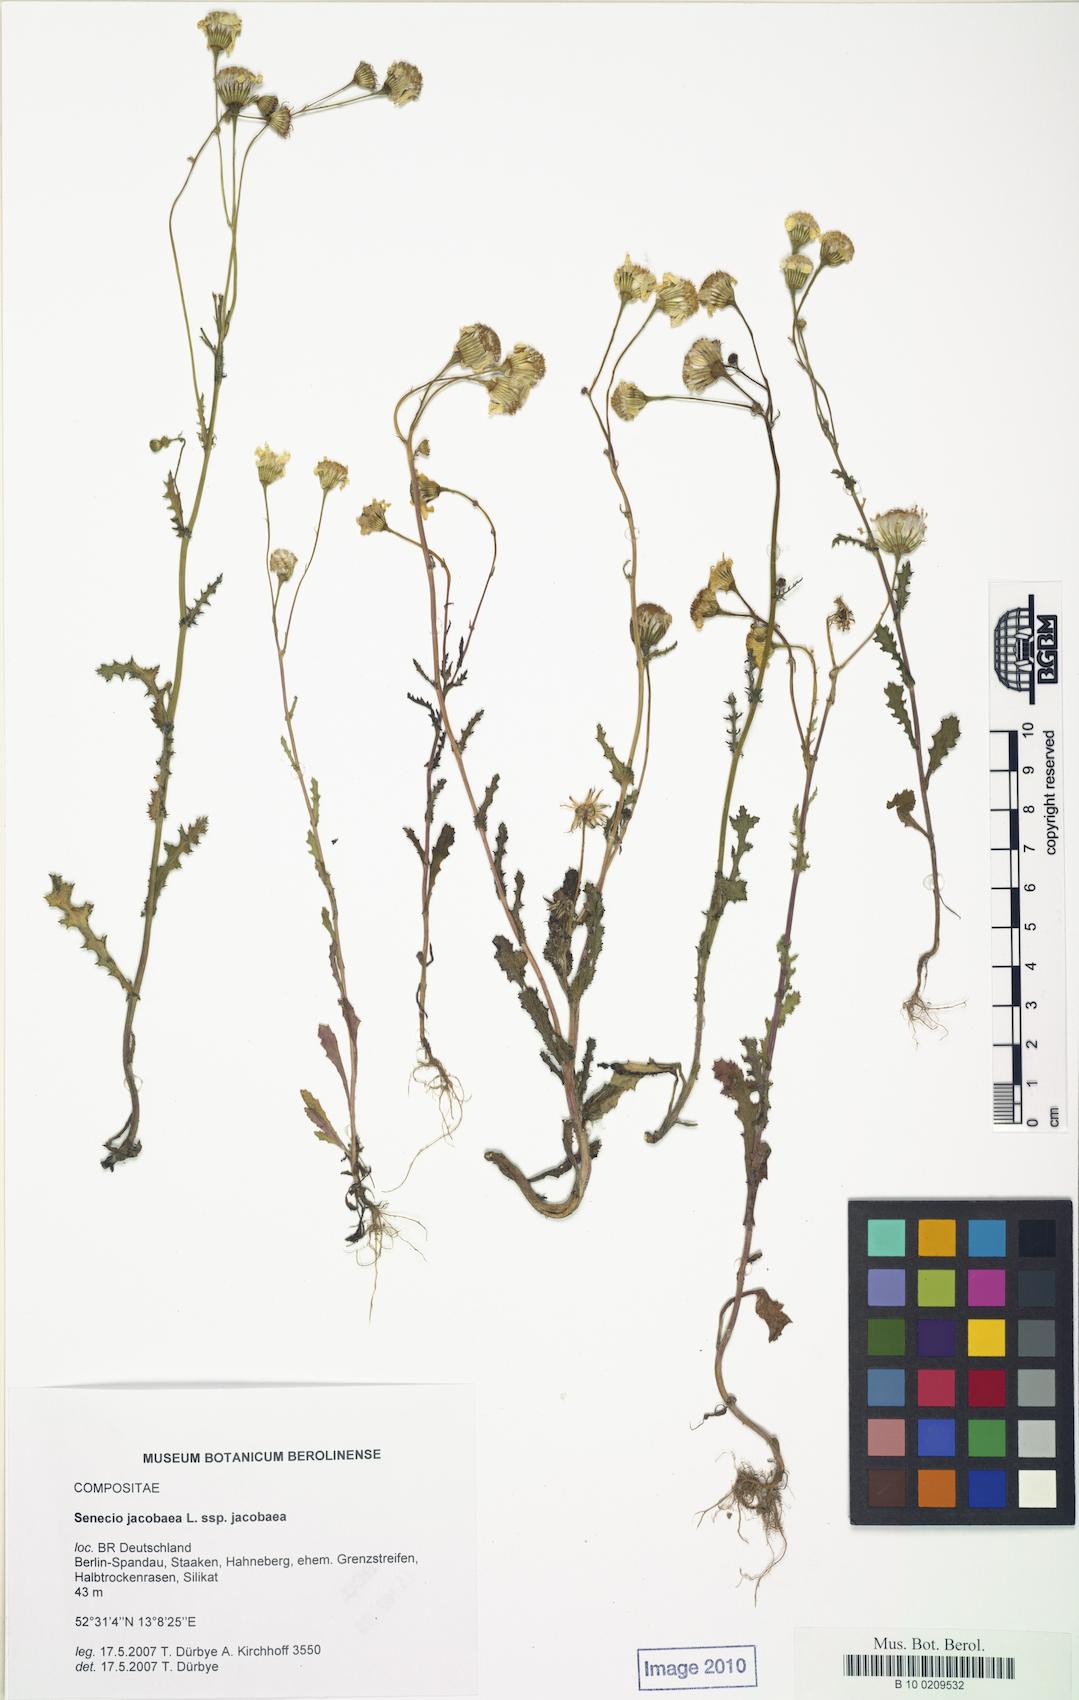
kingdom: Plantae
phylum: Tracheophyta
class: Magnoliopsida
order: Asterales
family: Asteraceae
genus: Jacobaea
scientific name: Jacobaea vulgaris
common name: Stinking willie
